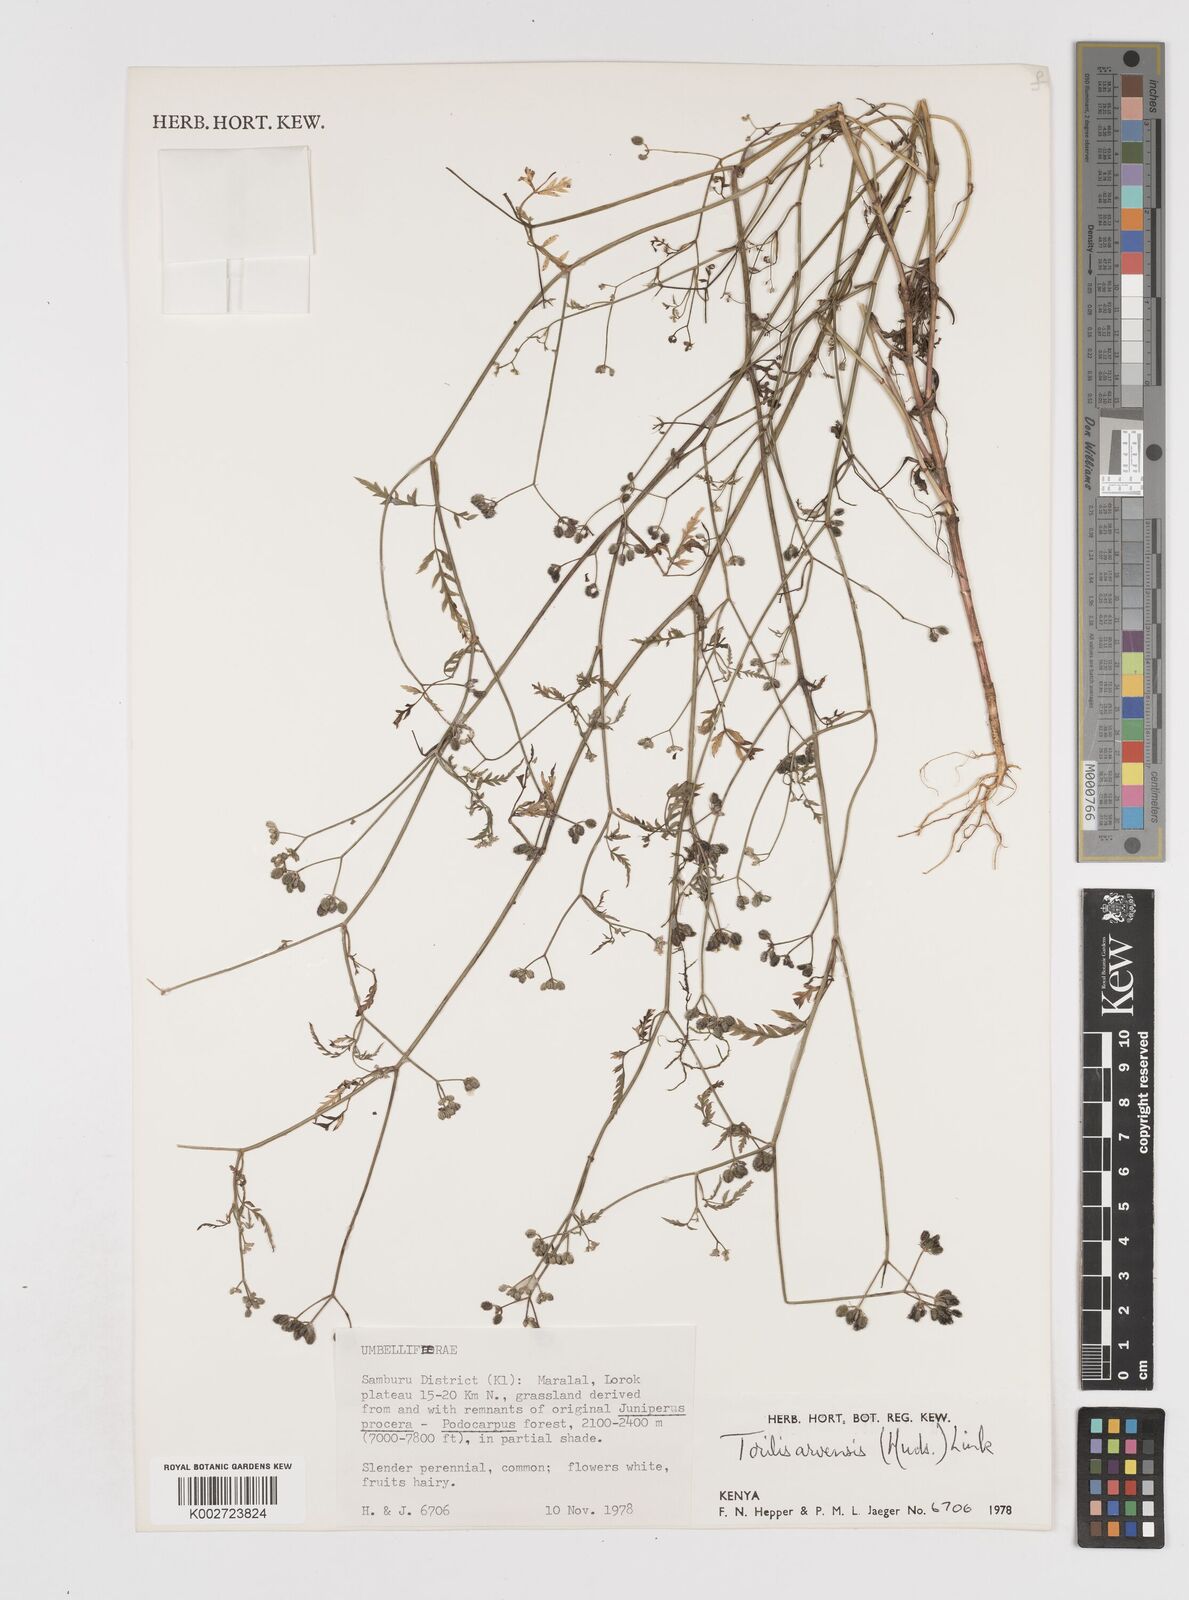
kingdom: Plantae
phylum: Tracheophyta
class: Magnoliopsida
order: Apiales
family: Apiaceae
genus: Torilis
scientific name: Torilis arvensis
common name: Spreading hedge-parsley
